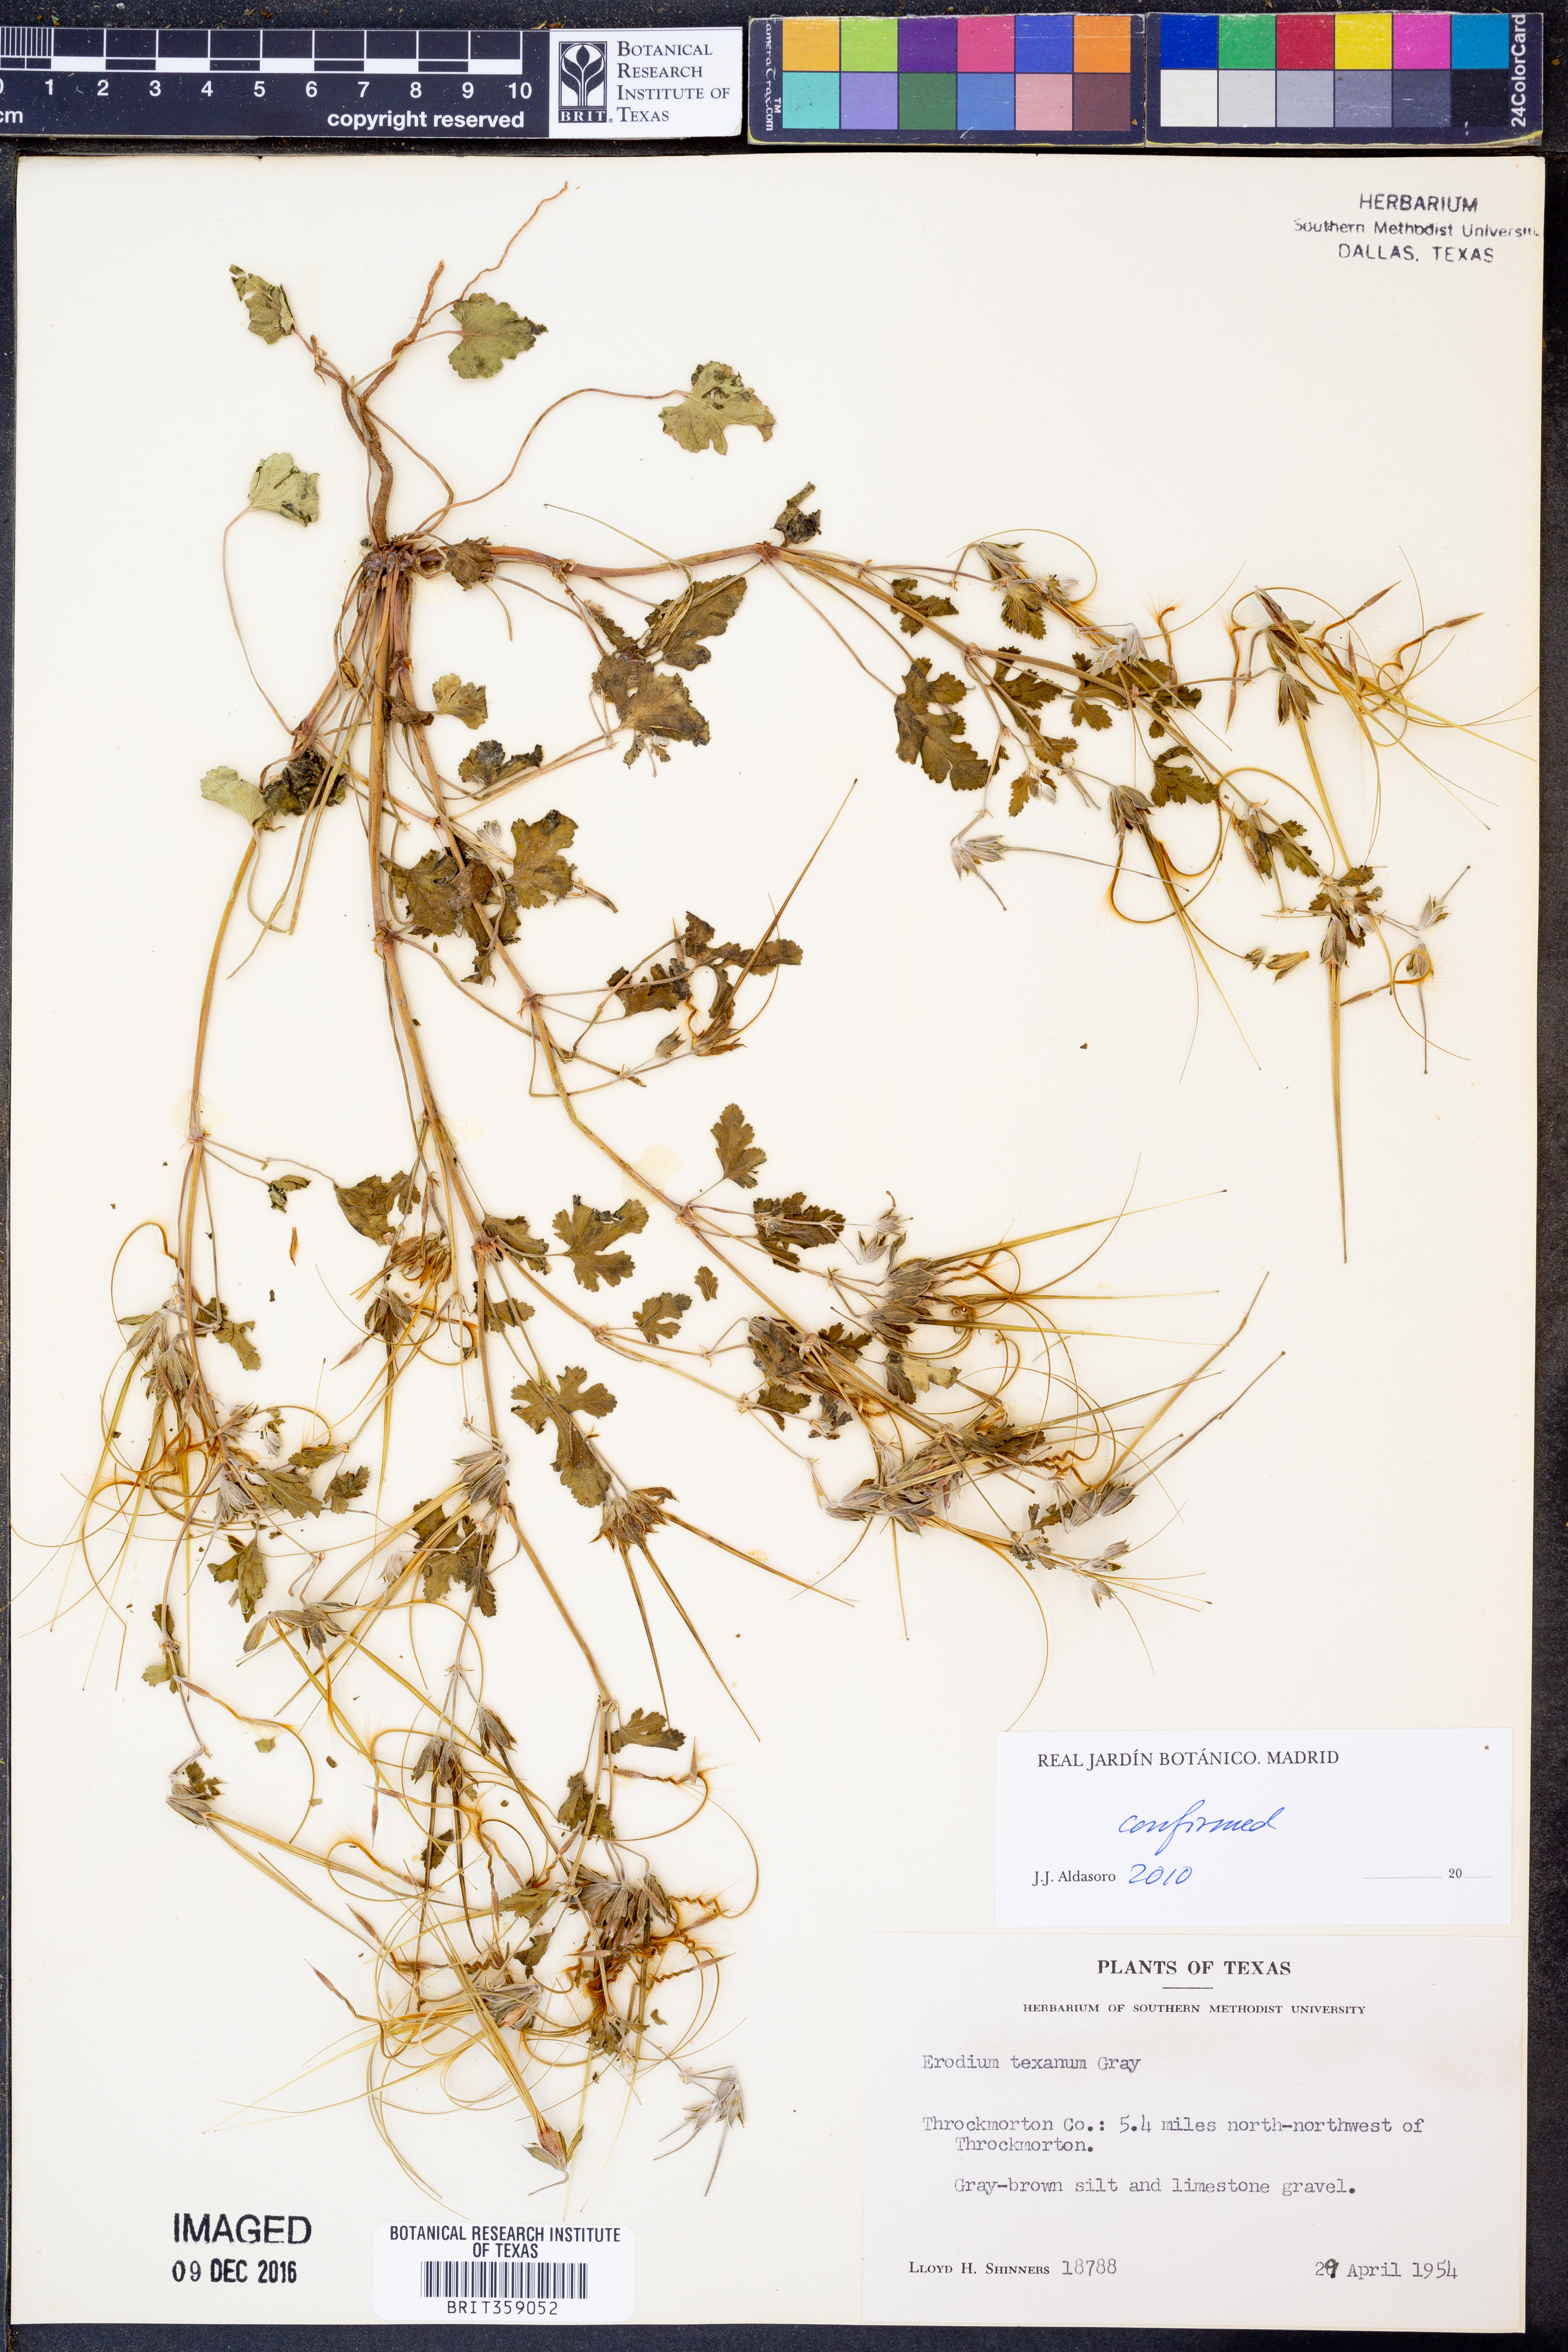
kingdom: Plantae
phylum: Tracheophyta
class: Magnoliopsida
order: Geraniales
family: Geraniaceae
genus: Erodium
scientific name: Erodium texanum
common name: Texas stork's-bill
